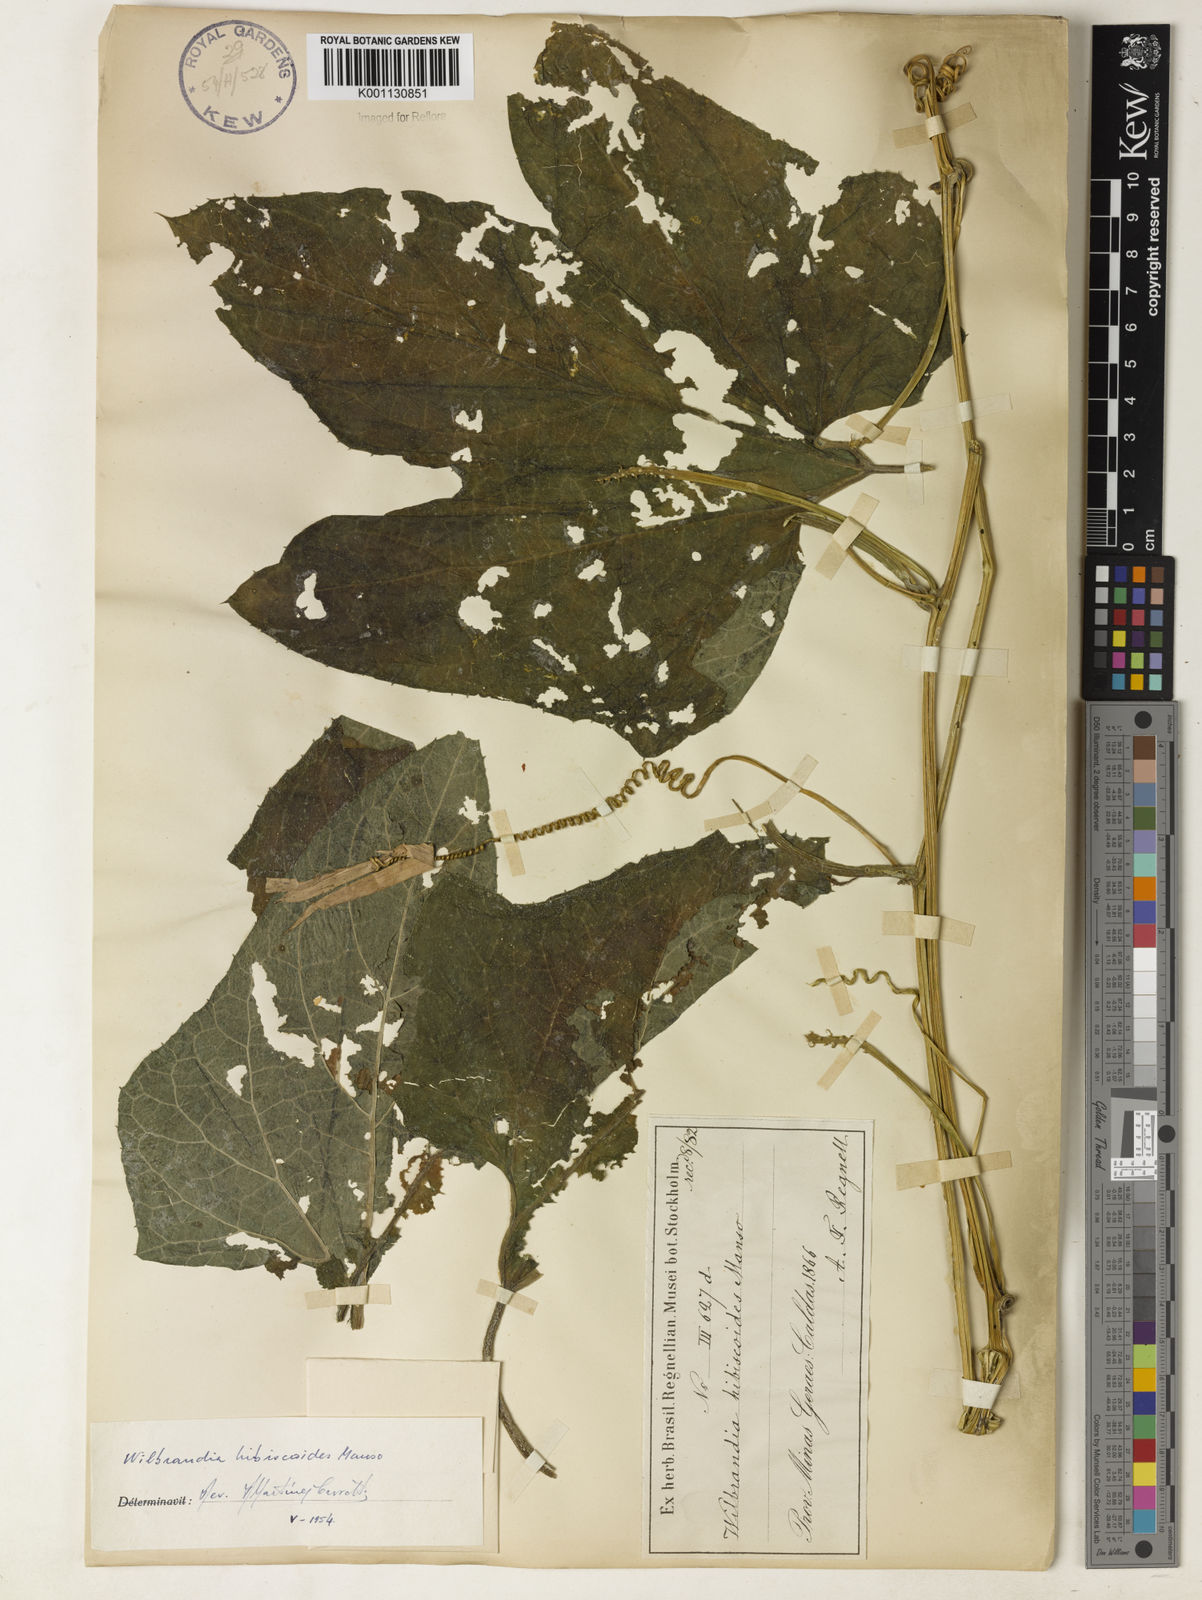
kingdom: Plantae
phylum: Tracheophyta
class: Magnoliopsida
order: Cucurbitales
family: Cucurbitaceae
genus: Wilbrandia
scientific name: Wilbrandia hibiscoides
